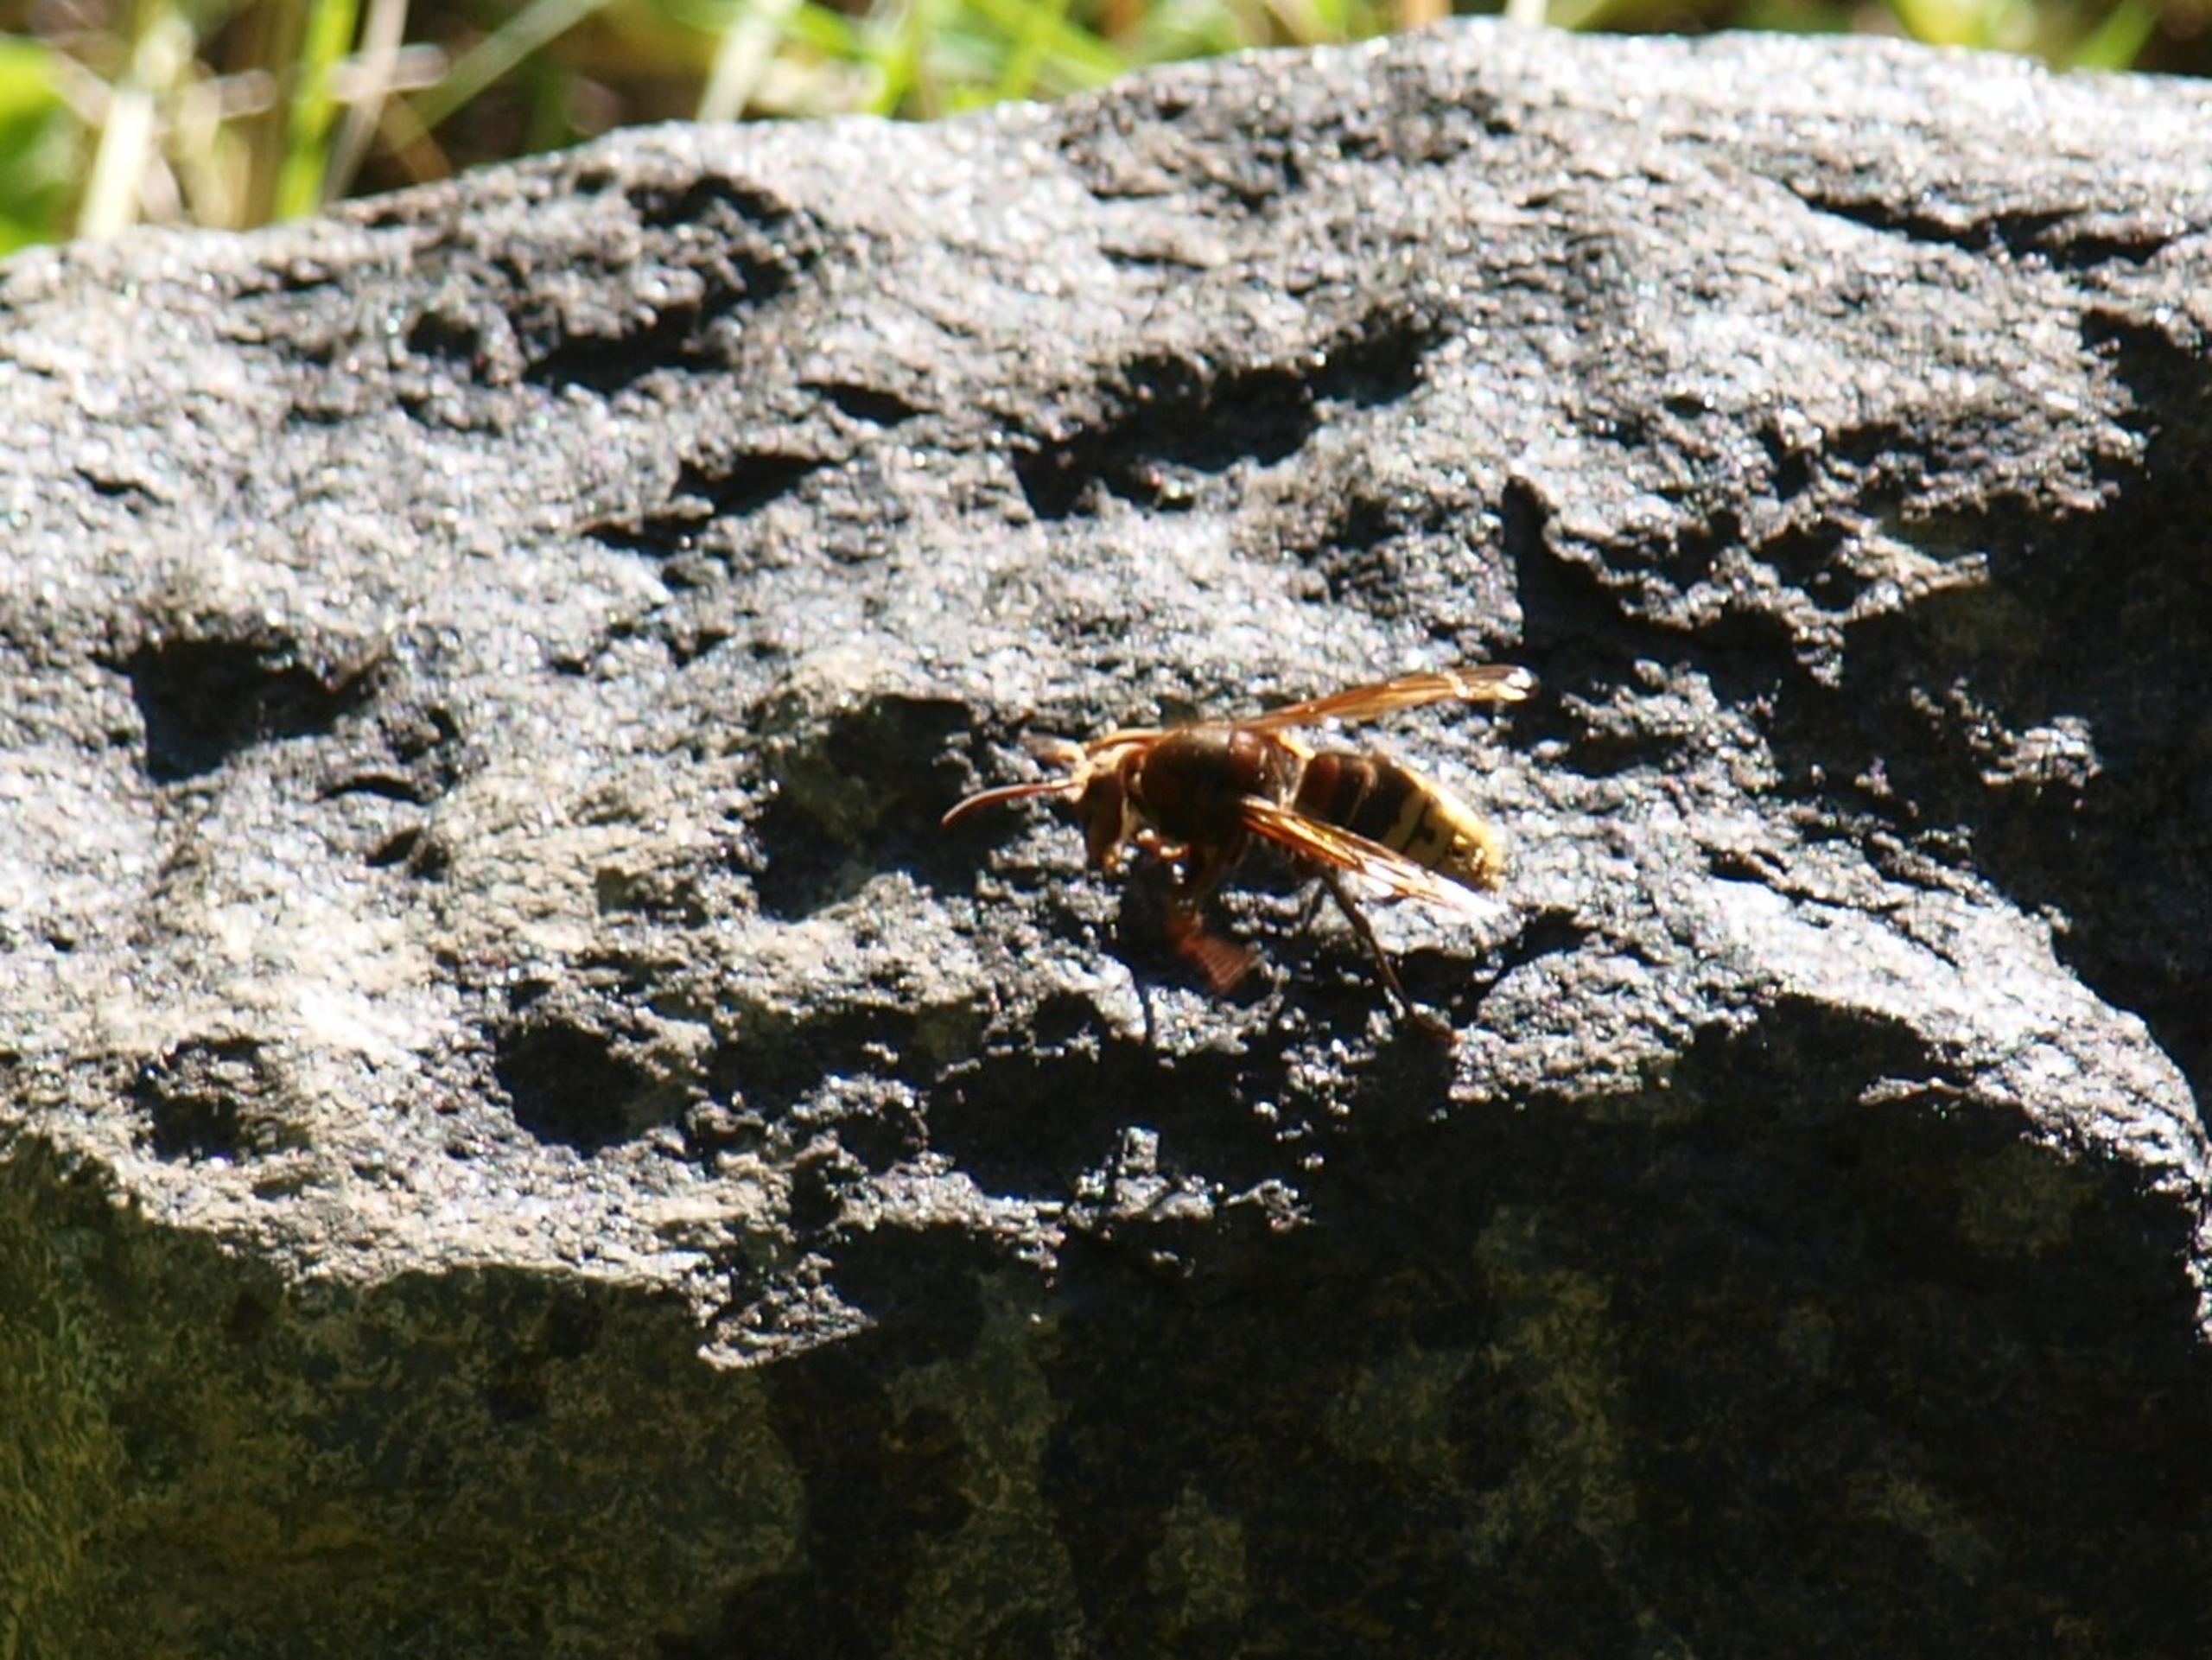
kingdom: Animalia
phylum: Arthropoda
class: Insecta
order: Hymenoptera
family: Vespidae
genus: Vespa
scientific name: Vespa crabro
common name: Stor gedehams
